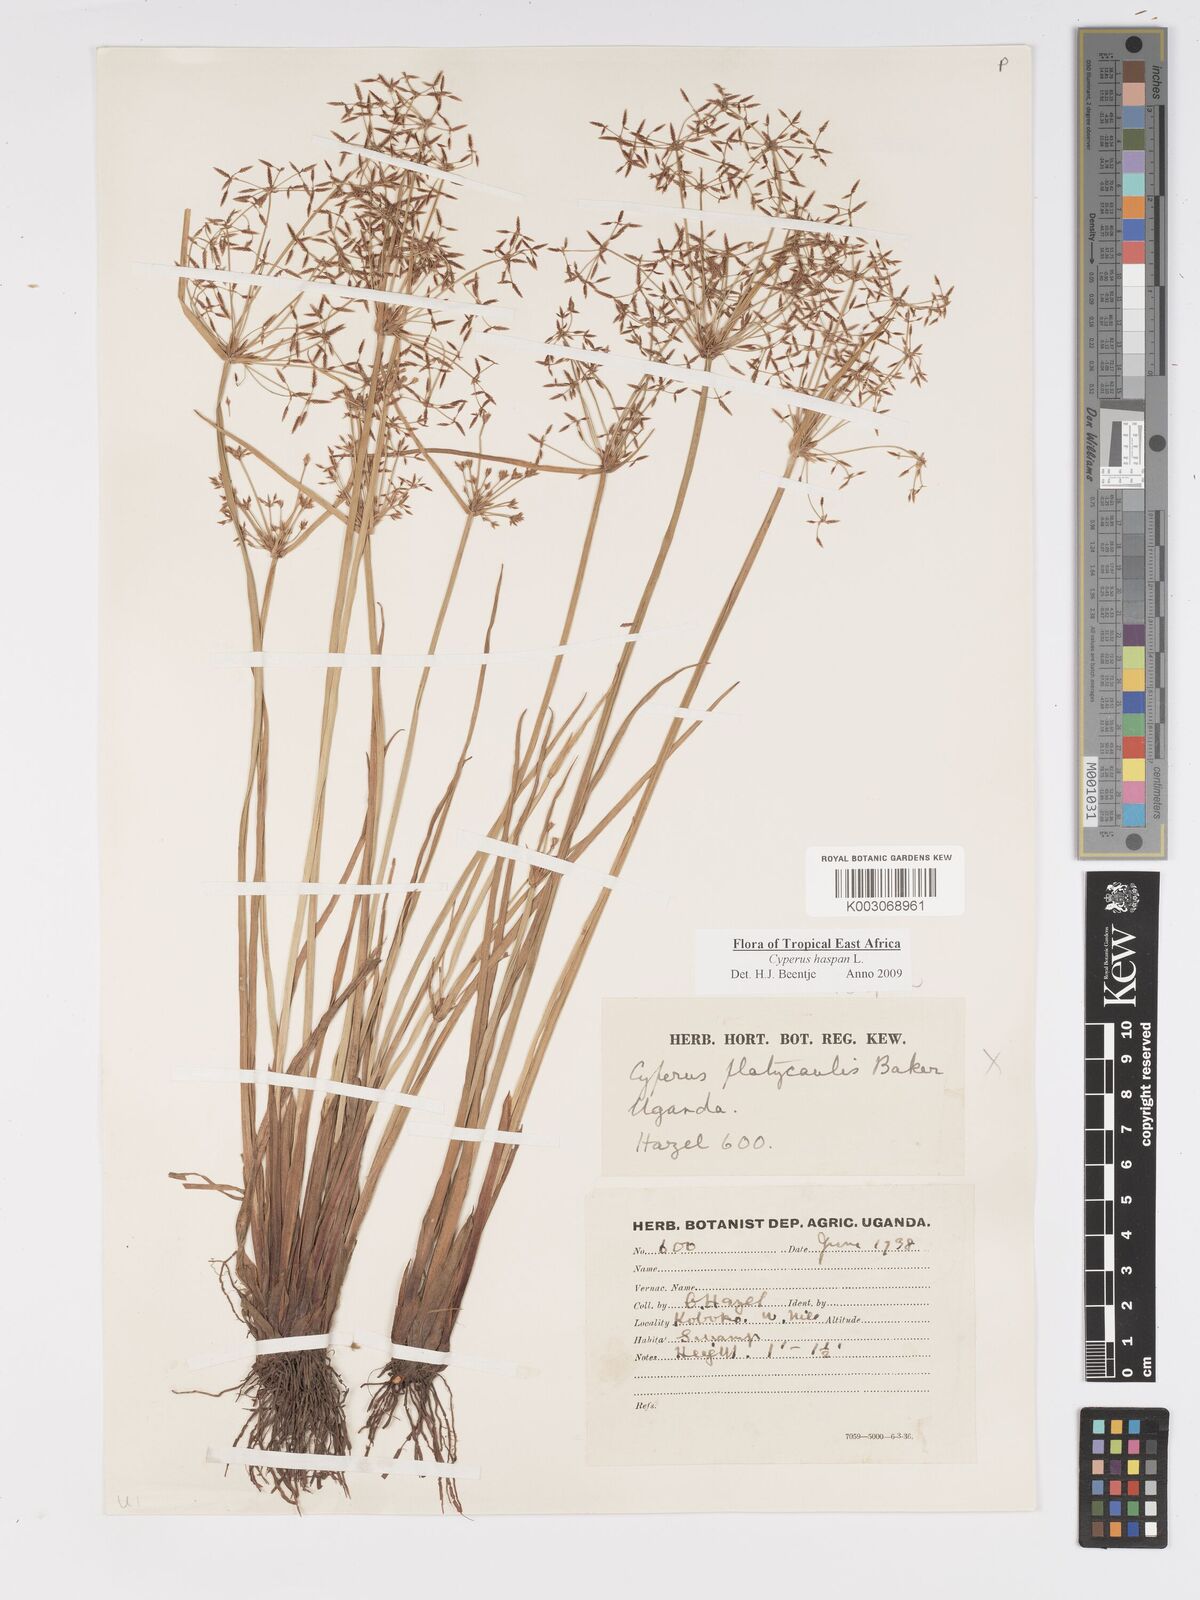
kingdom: Plantae
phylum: Tracheophyta
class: Liliopsida
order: Poales
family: Cyperaceae
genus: Cyperus
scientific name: Cyperus haspan
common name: Haspan flatsedge
